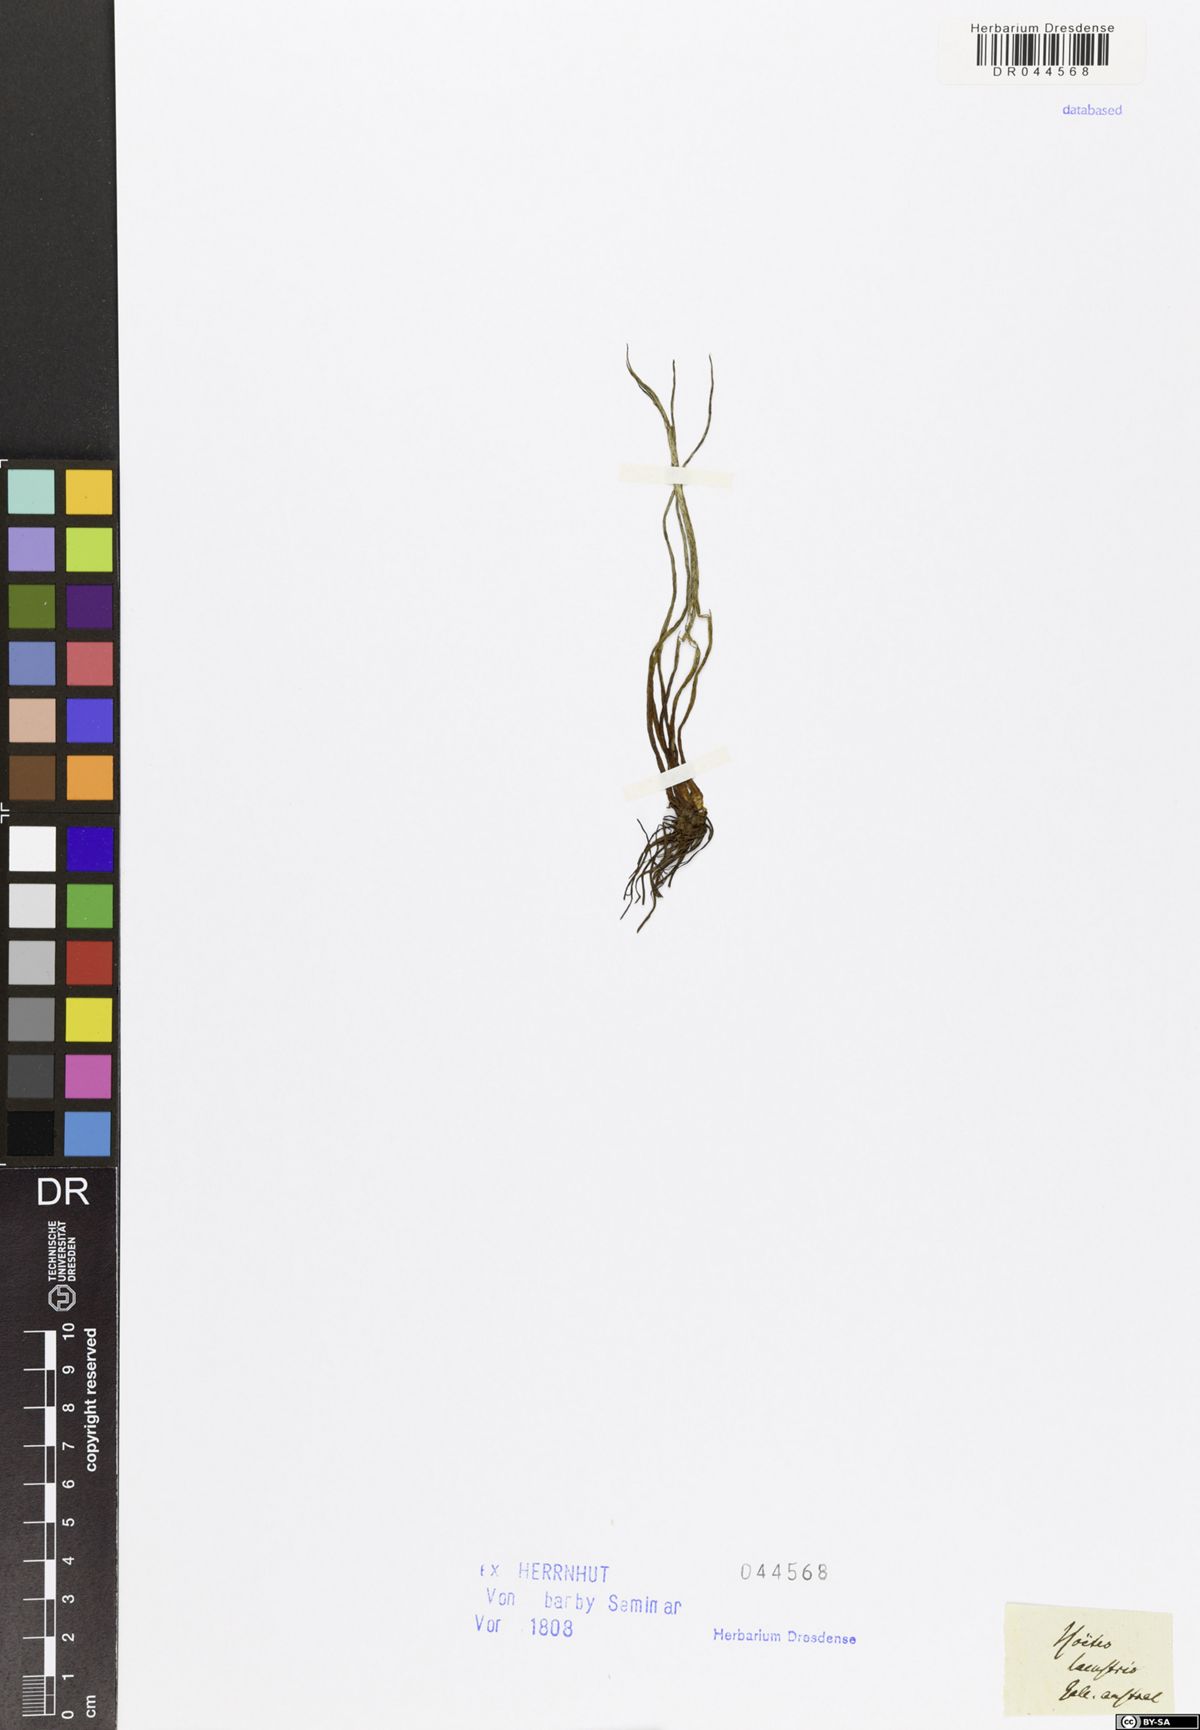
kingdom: Plantae
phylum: Tracheophyta
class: Lycopodiopsida
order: Isoetales
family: Isoetaceae
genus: Isoetes
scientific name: Isoetes lacustris
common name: Common quillwort
